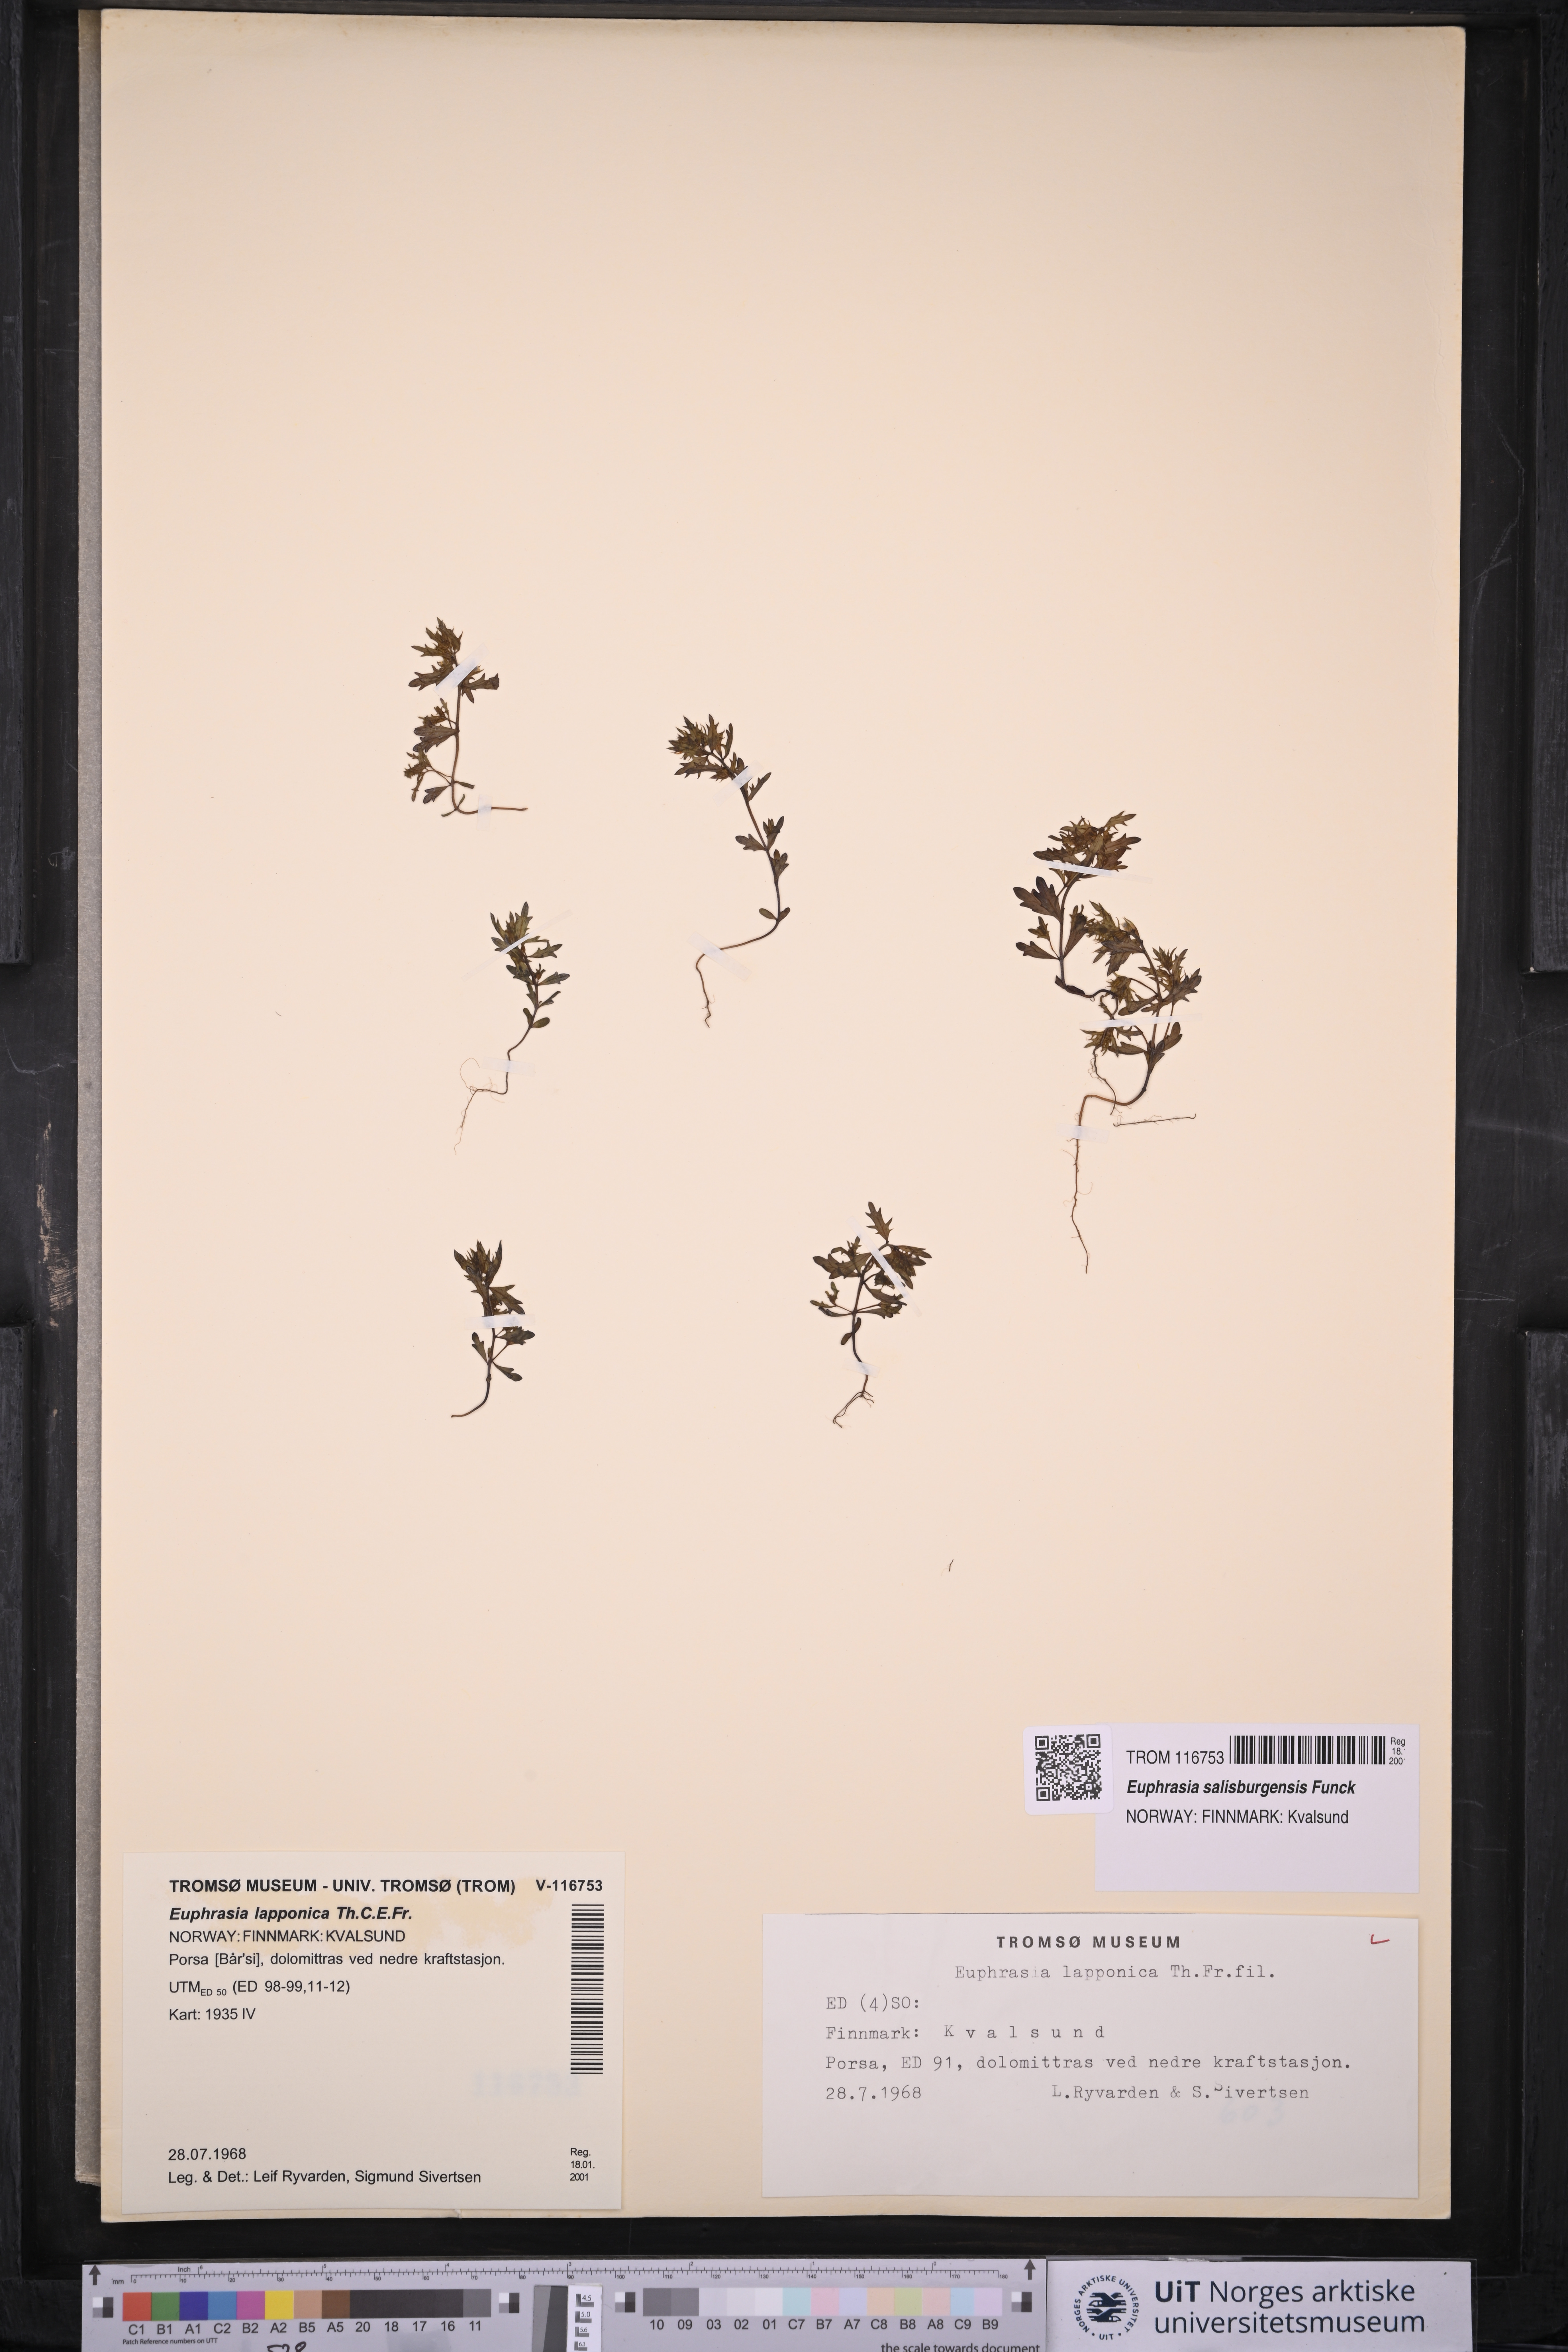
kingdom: Plantae
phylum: Tracheophyta
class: Magnoliopsida
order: Lamiales
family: Orobanchaceae
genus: Euphrasia
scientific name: Euphrasia salisburgensis
